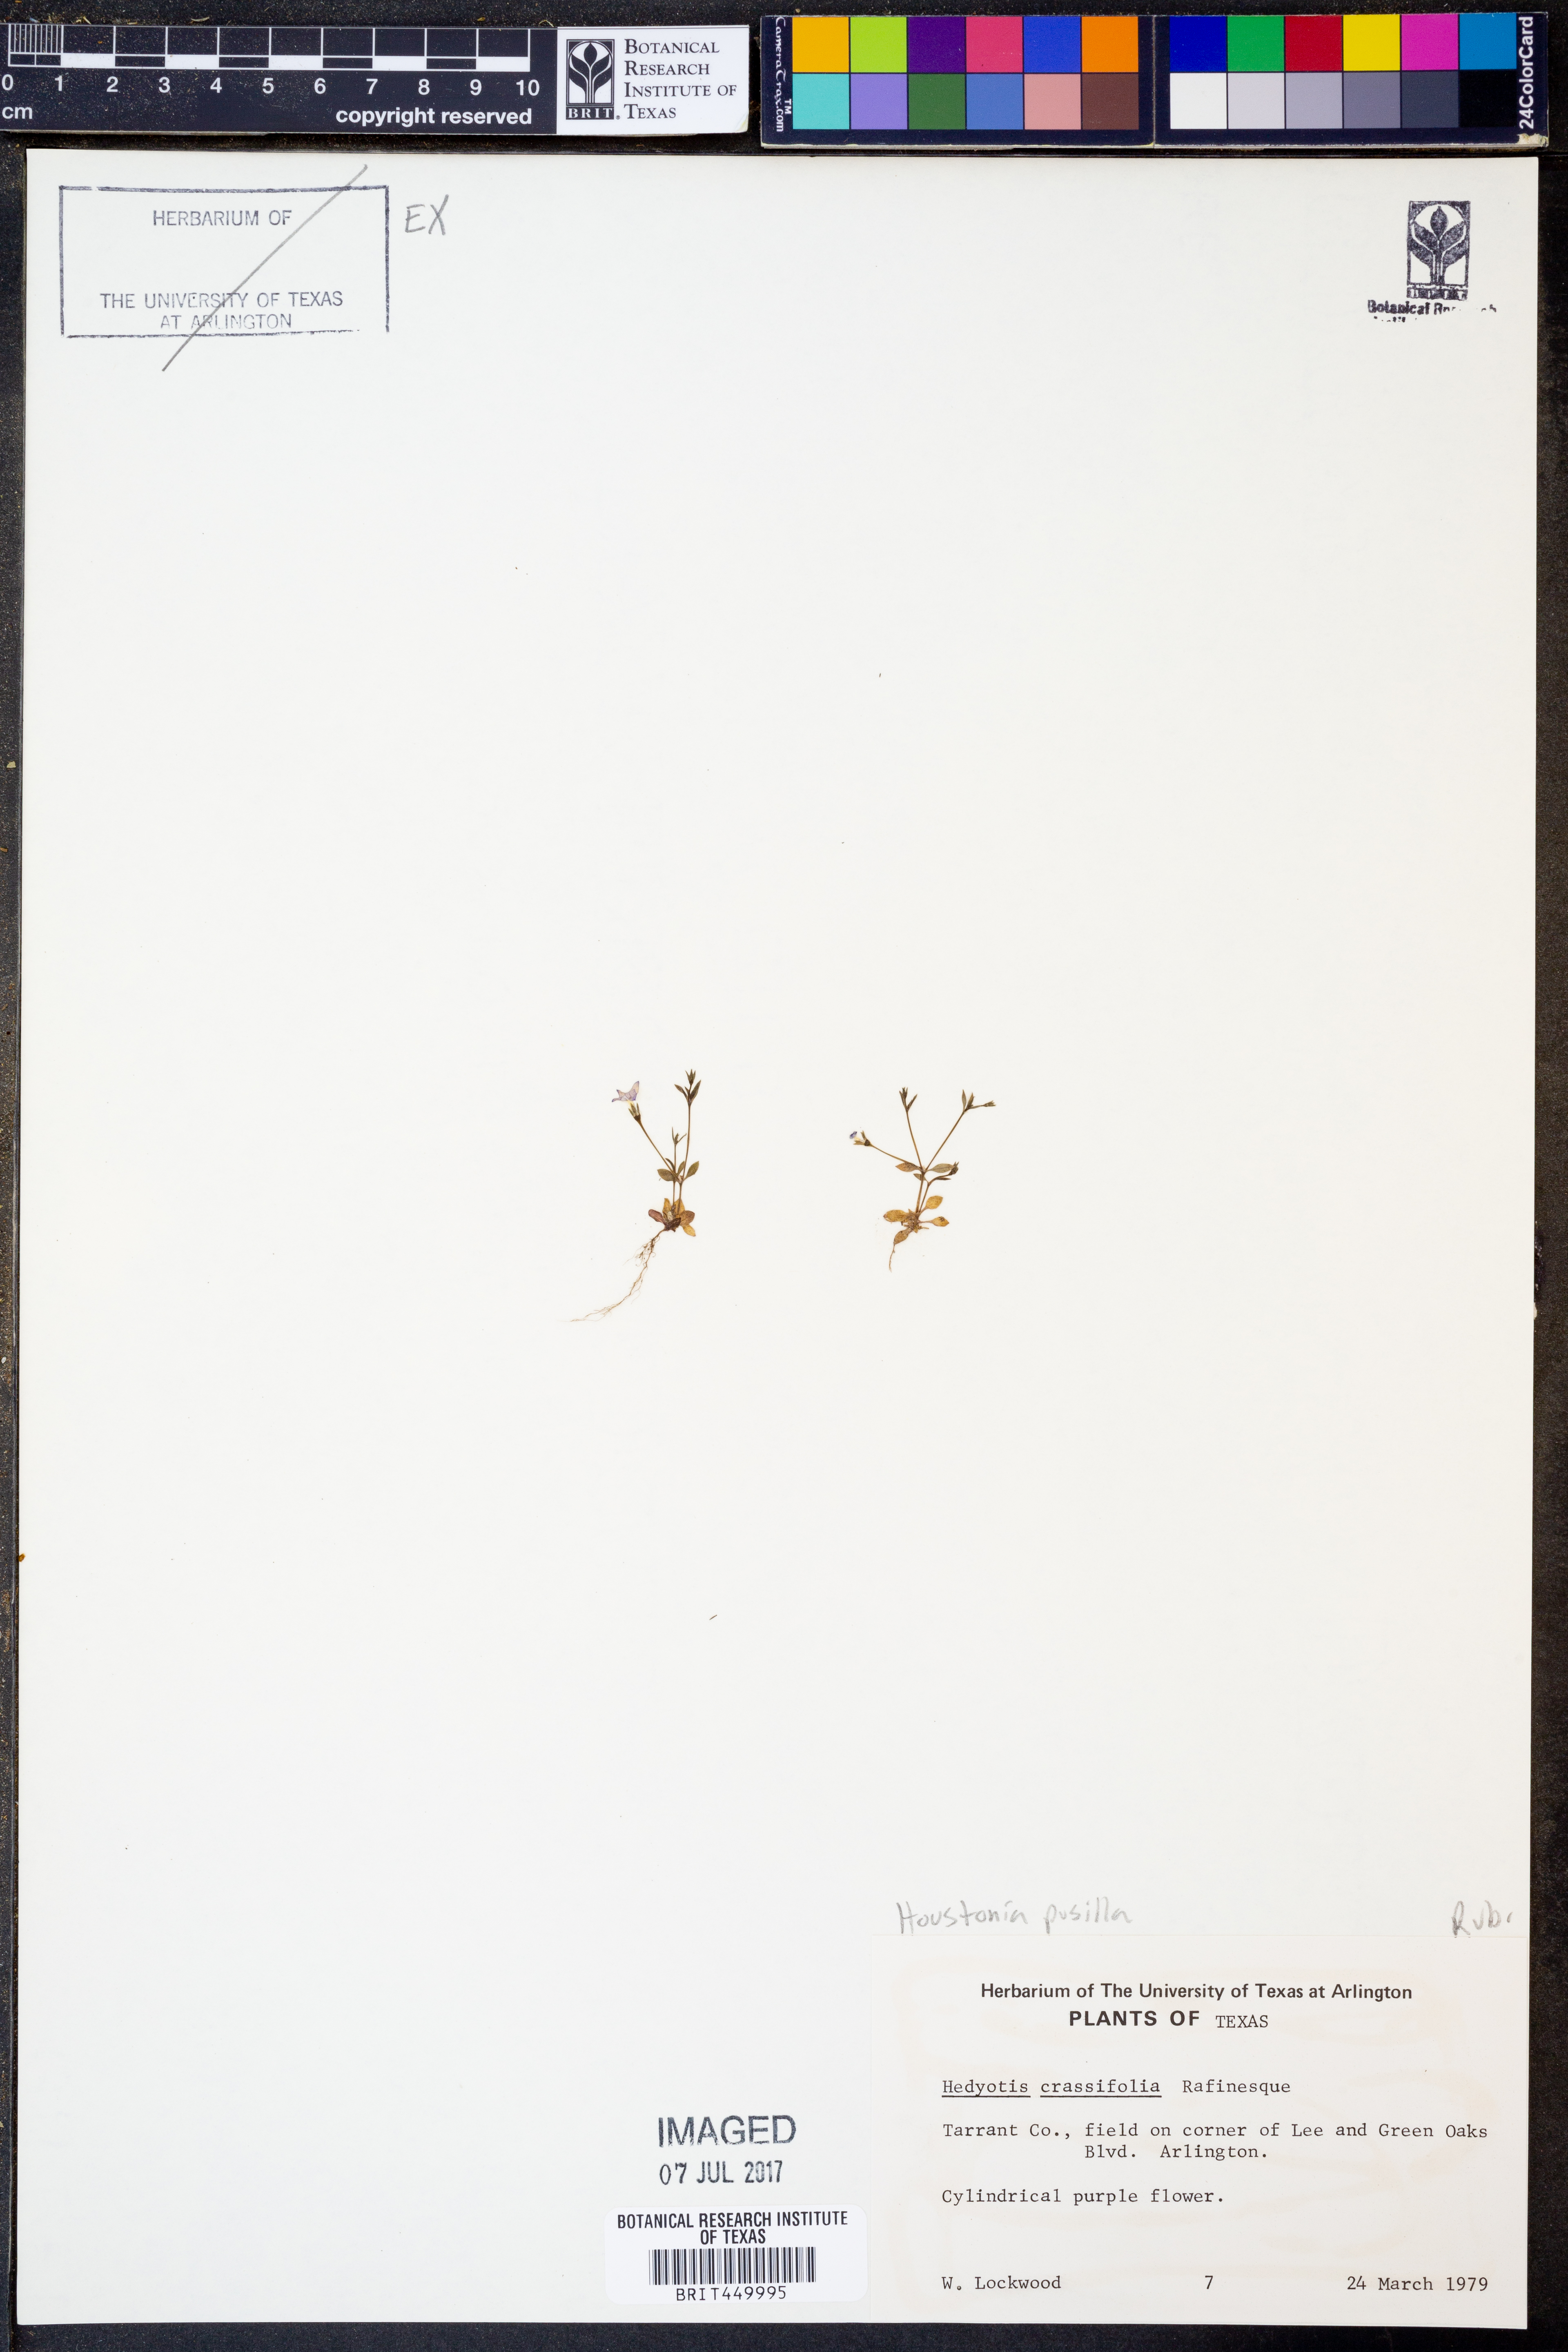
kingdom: Plantae
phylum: Tracheophyta
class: Magnoliopsida
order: Gentianales
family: Rubiaceae
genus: Oldenlandia
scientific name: Oldenlandia corymbosa
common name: Flat-top mille graines
